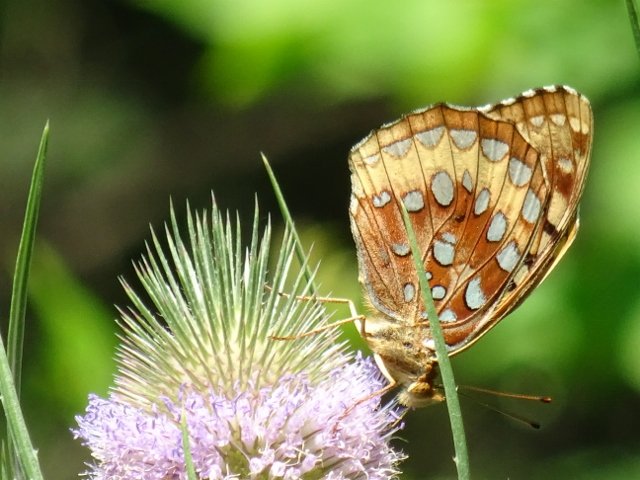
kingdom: Animalia
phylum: Arthropoda
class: Insecta
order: Lepidoptera
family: Nymphalidae
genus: Speyeria
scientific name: Speyeria cybele
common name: Great Spangled Fritillary
